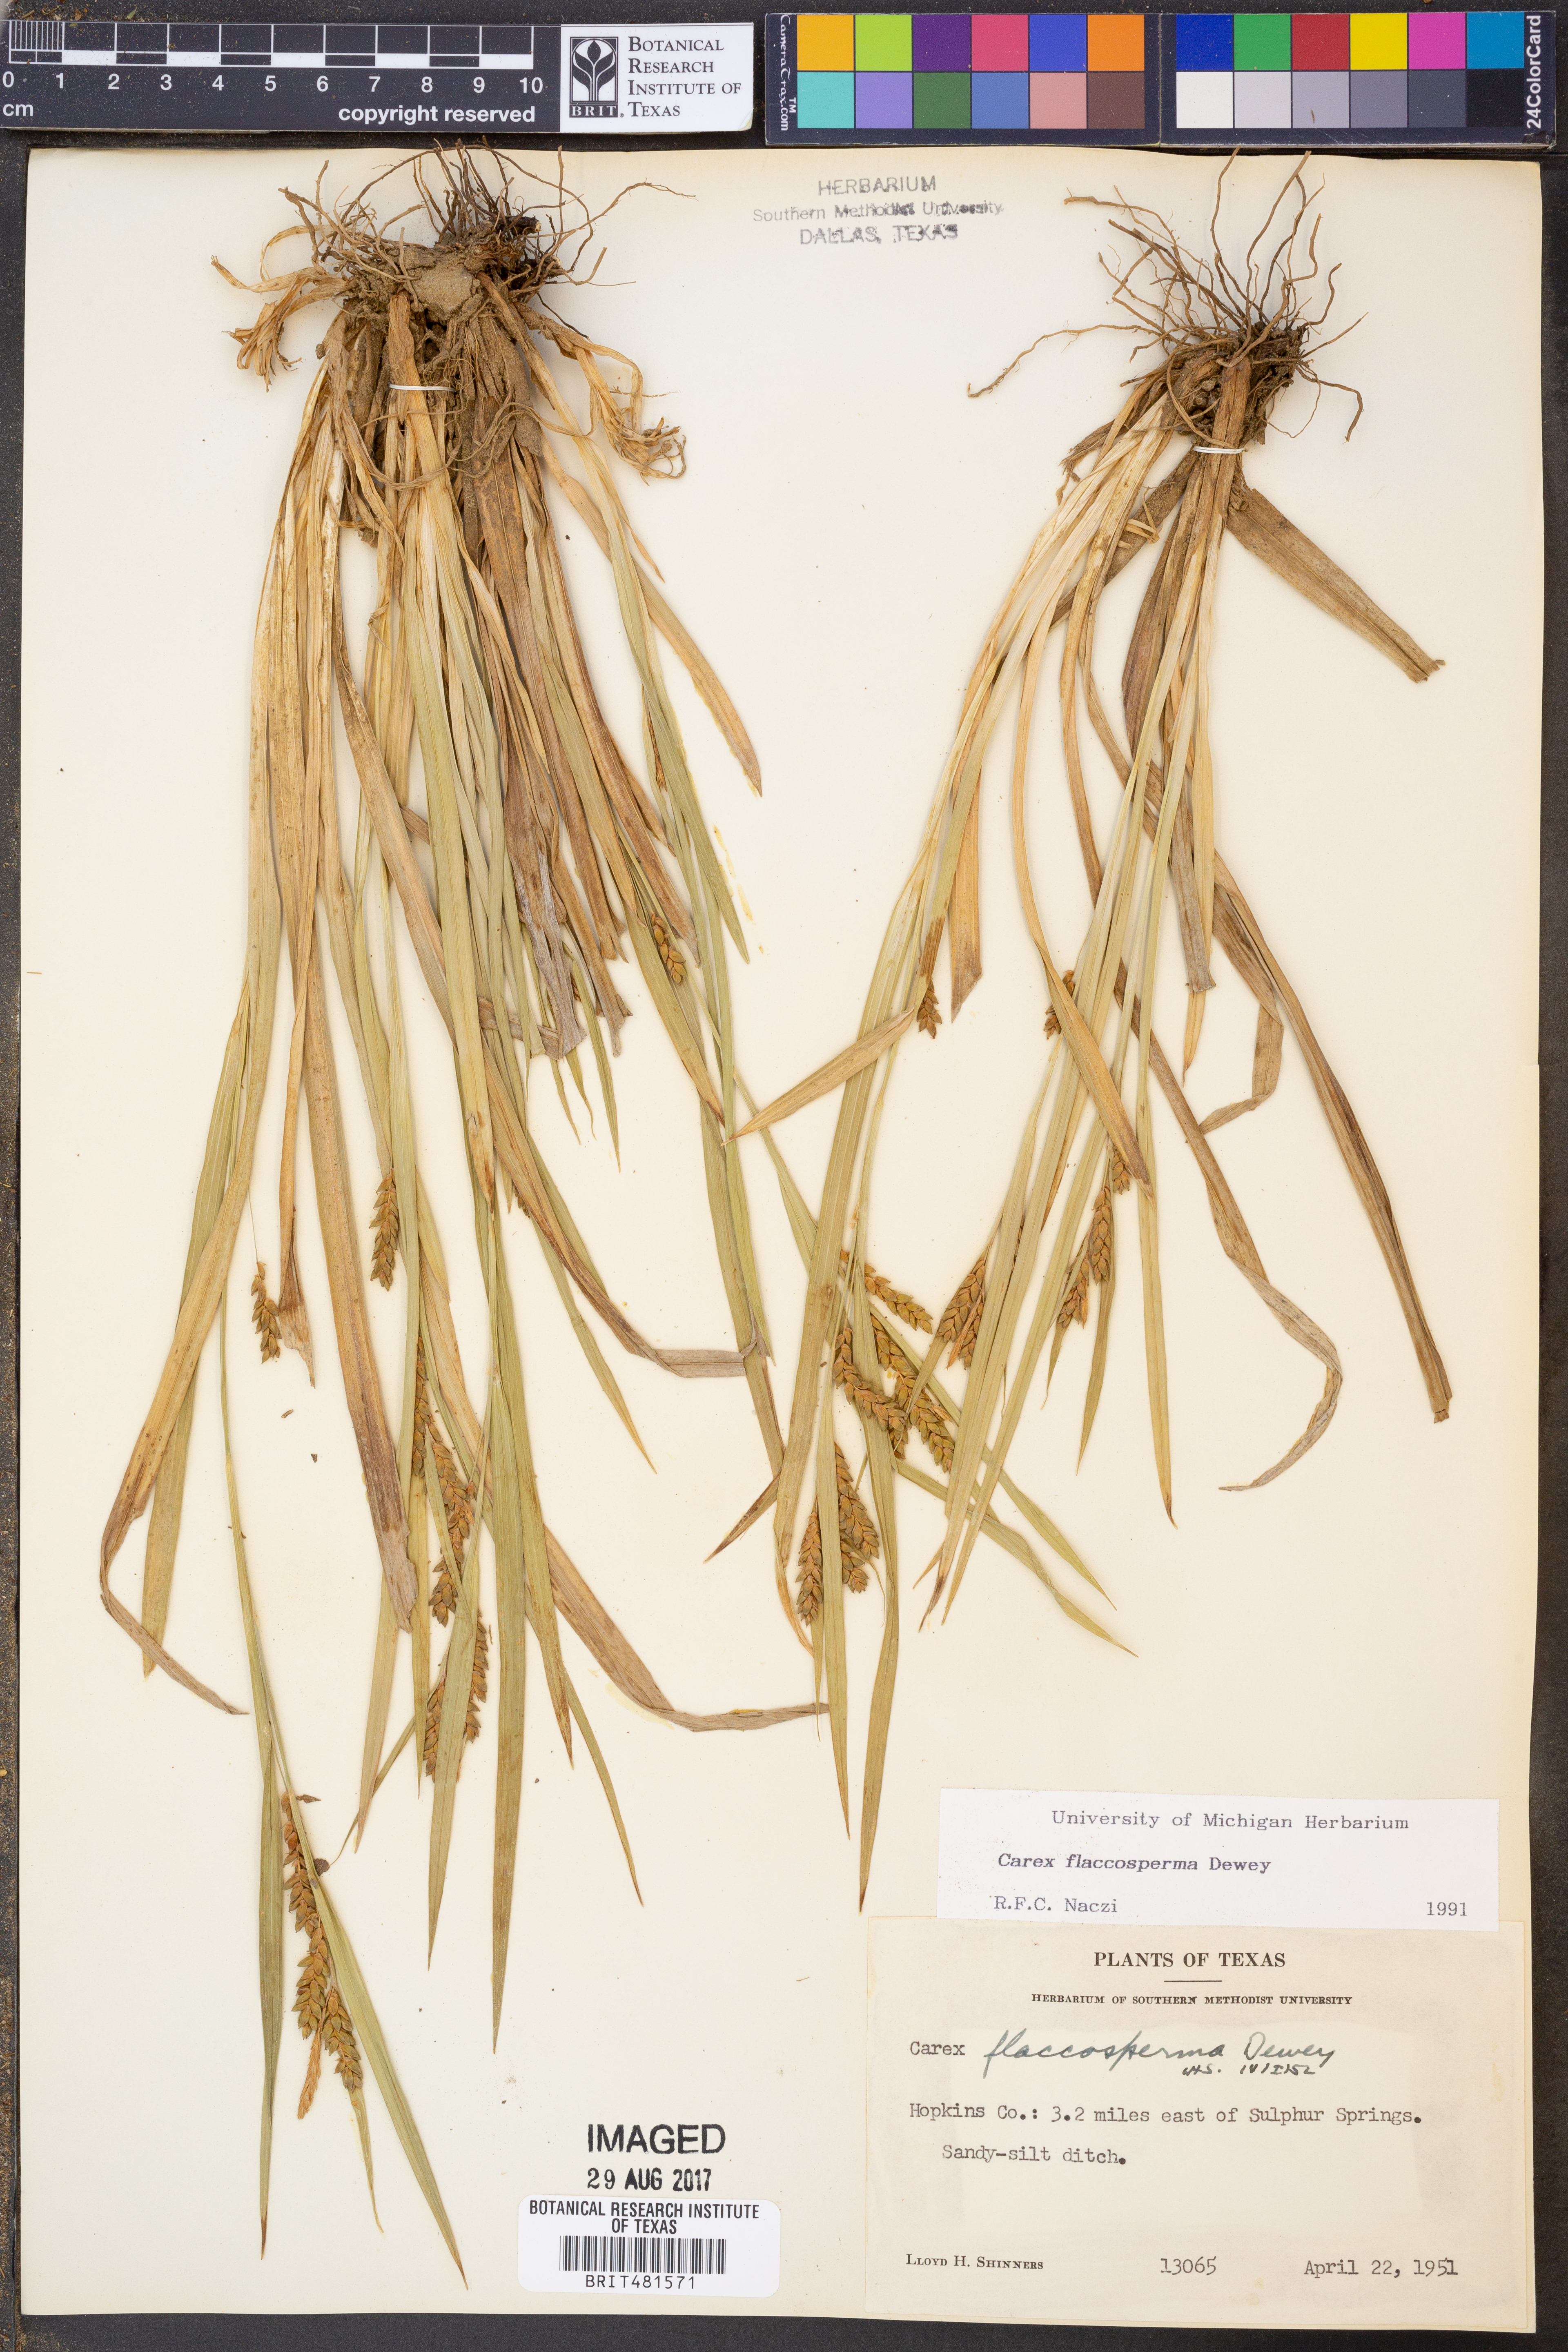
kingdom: Plantae
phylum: Tracheophyta
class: Liliopsida
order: Poales
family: Cyperaceae
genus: Carex
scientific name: Carex flaccosperma
